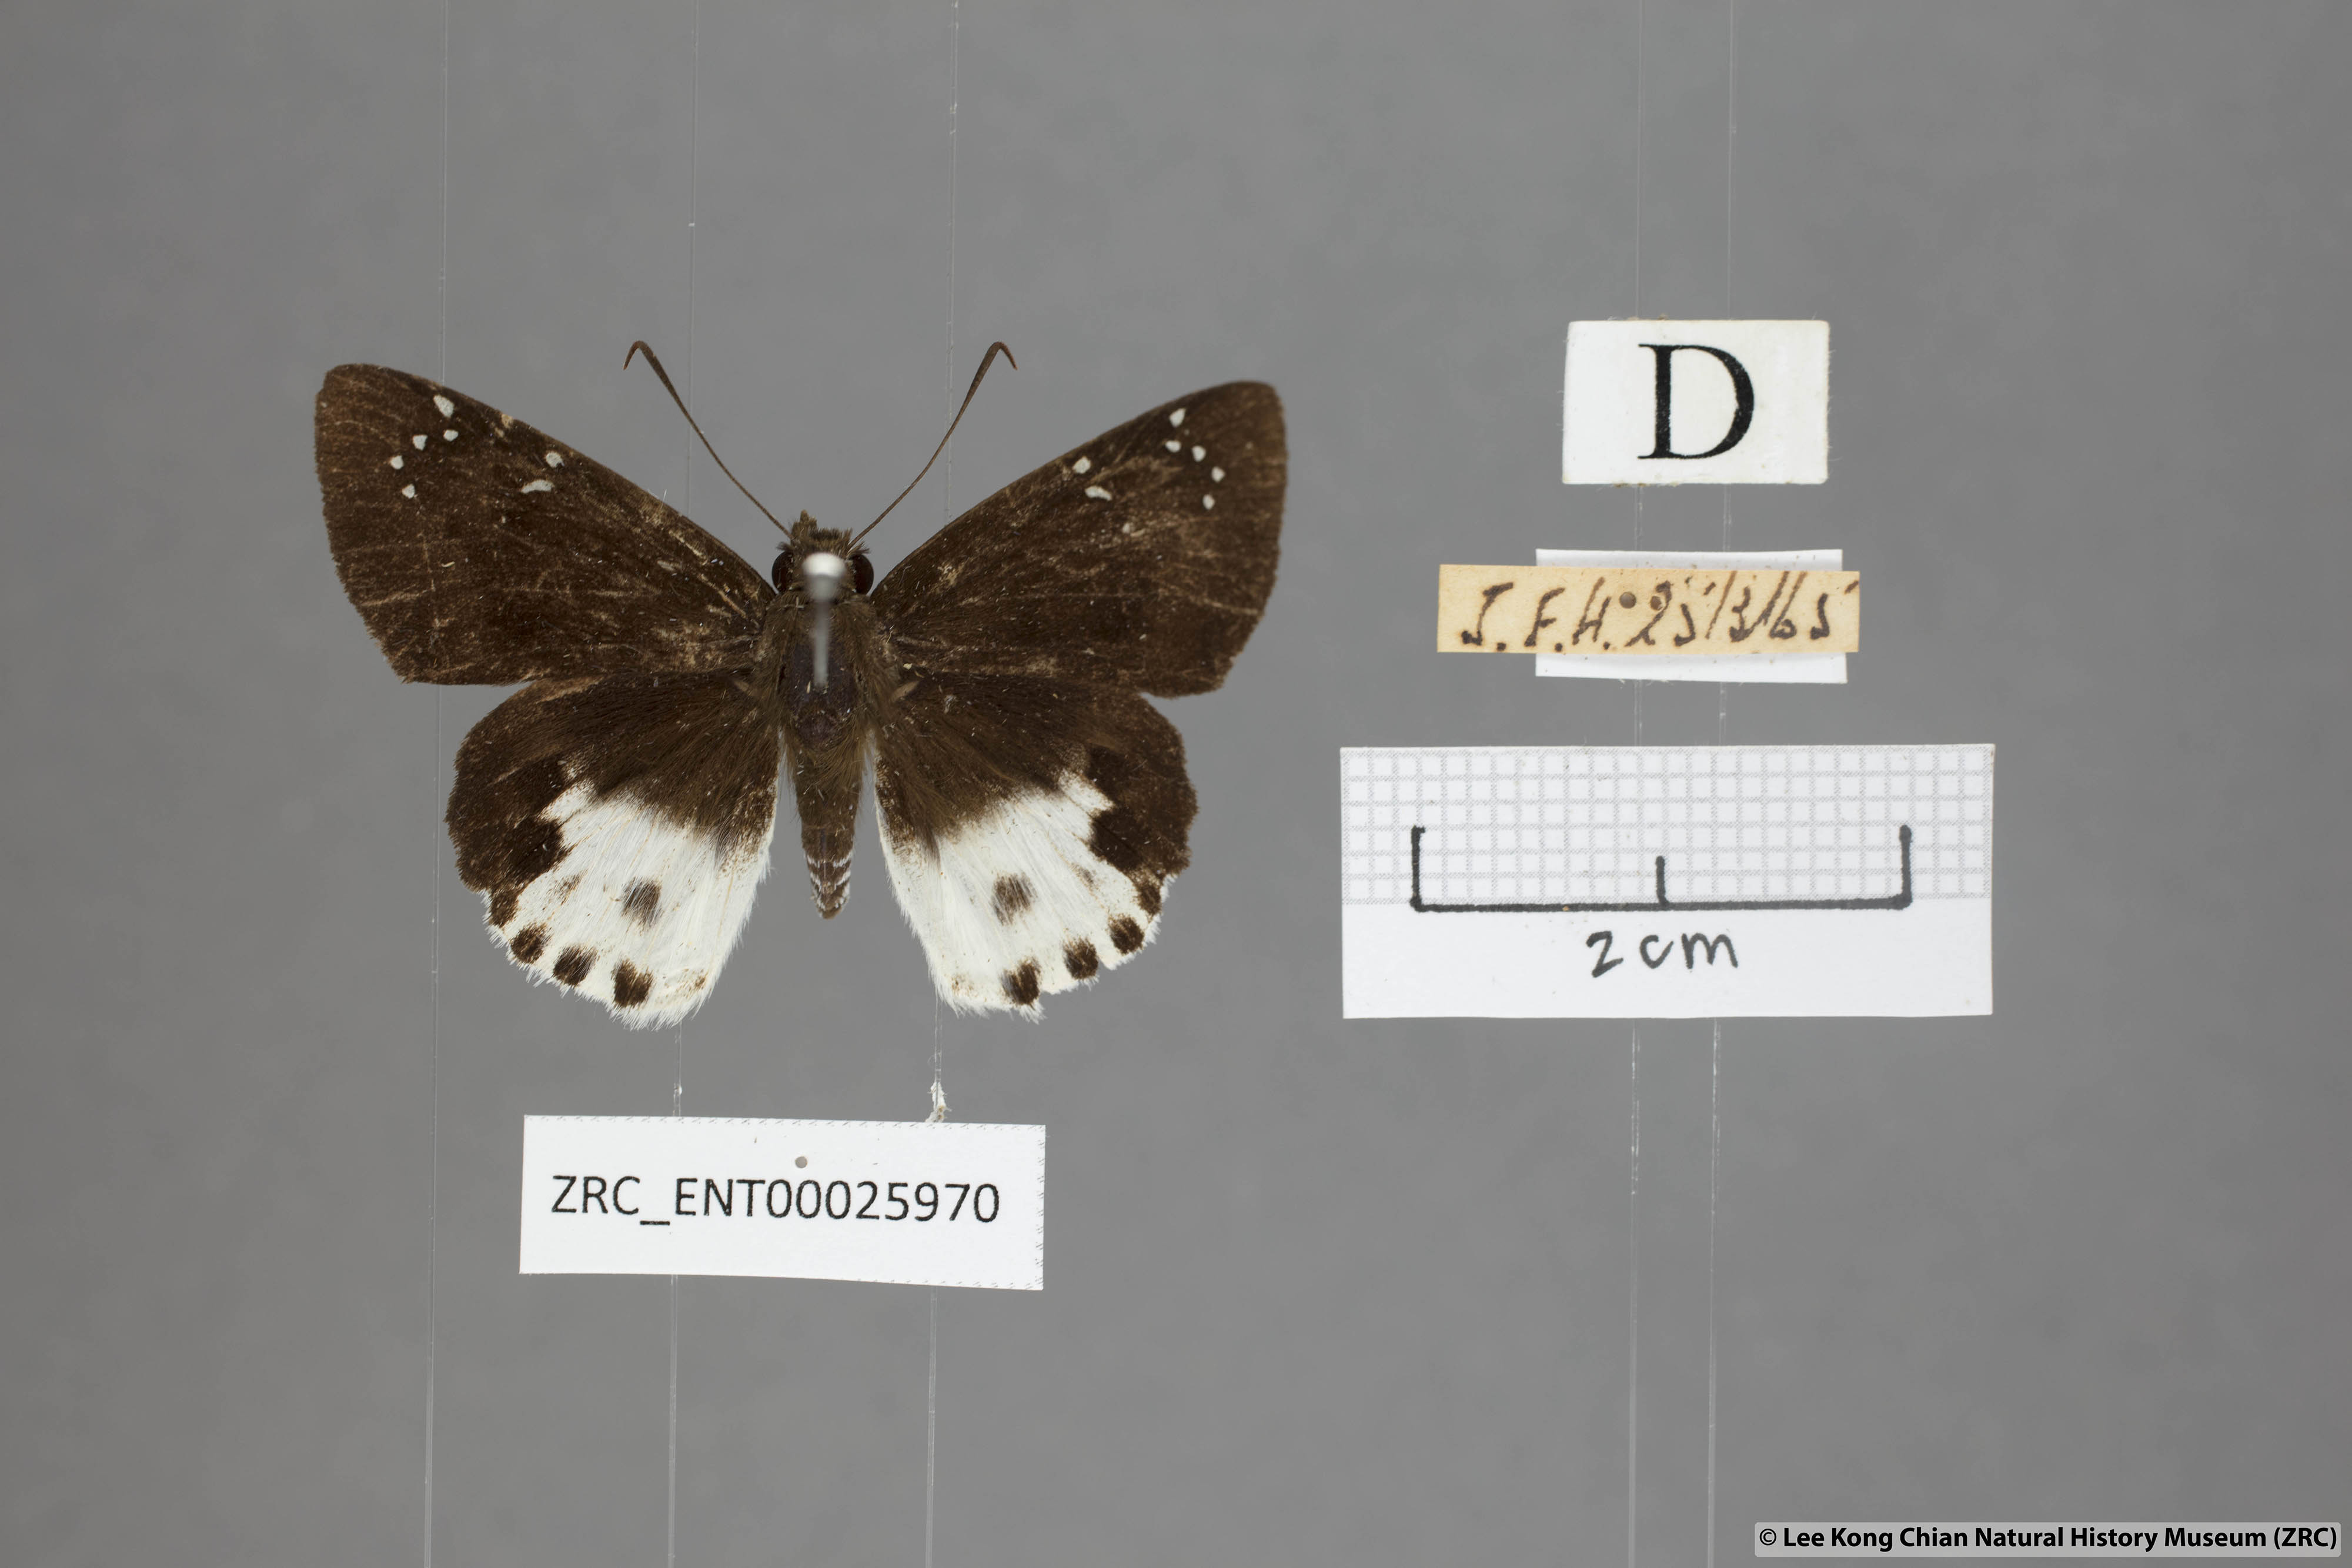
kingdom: Animalia
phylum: Arthropoda
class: Insecta
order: Lepidoptera
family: Hesperiidae
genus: Tagiades
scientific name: Tagiades cohaerens
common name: White-striped snow flat
